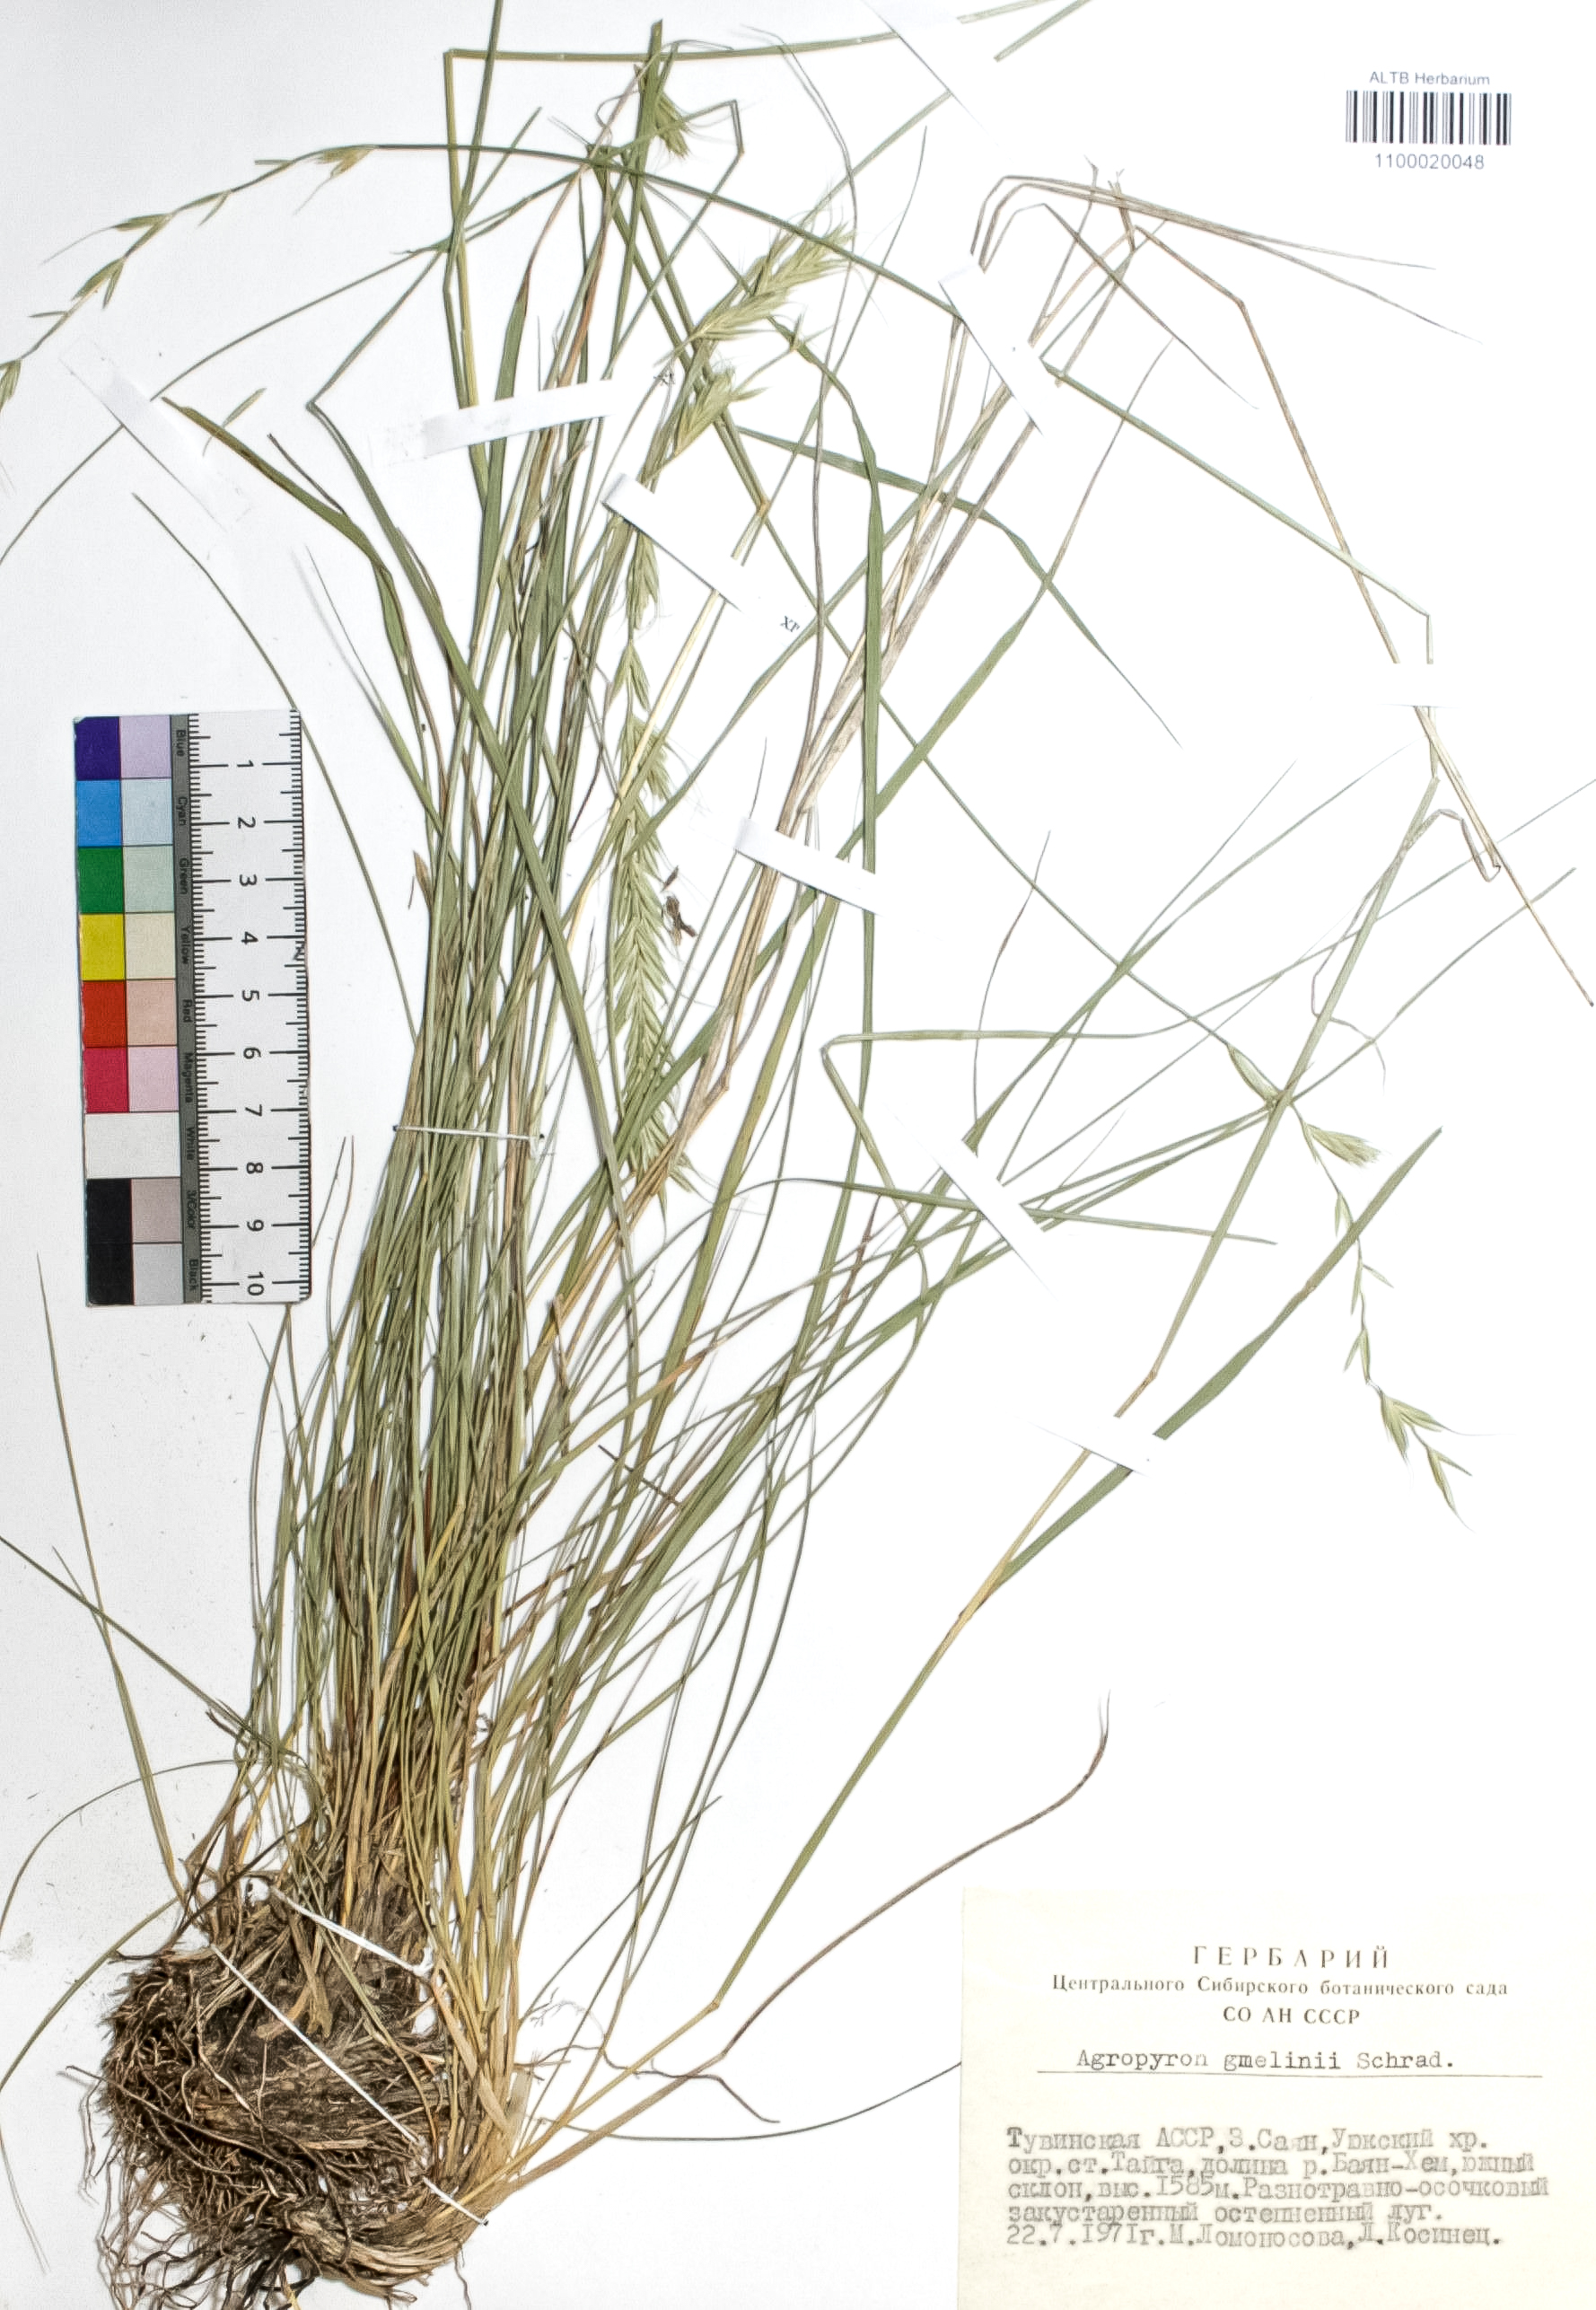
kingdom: Plantae
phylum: Tracheophyta
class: Liliopsida
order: Poales
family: Poaceae
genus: Pseudoroegneria
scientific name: Pseudoroegneria reflexiaristata
